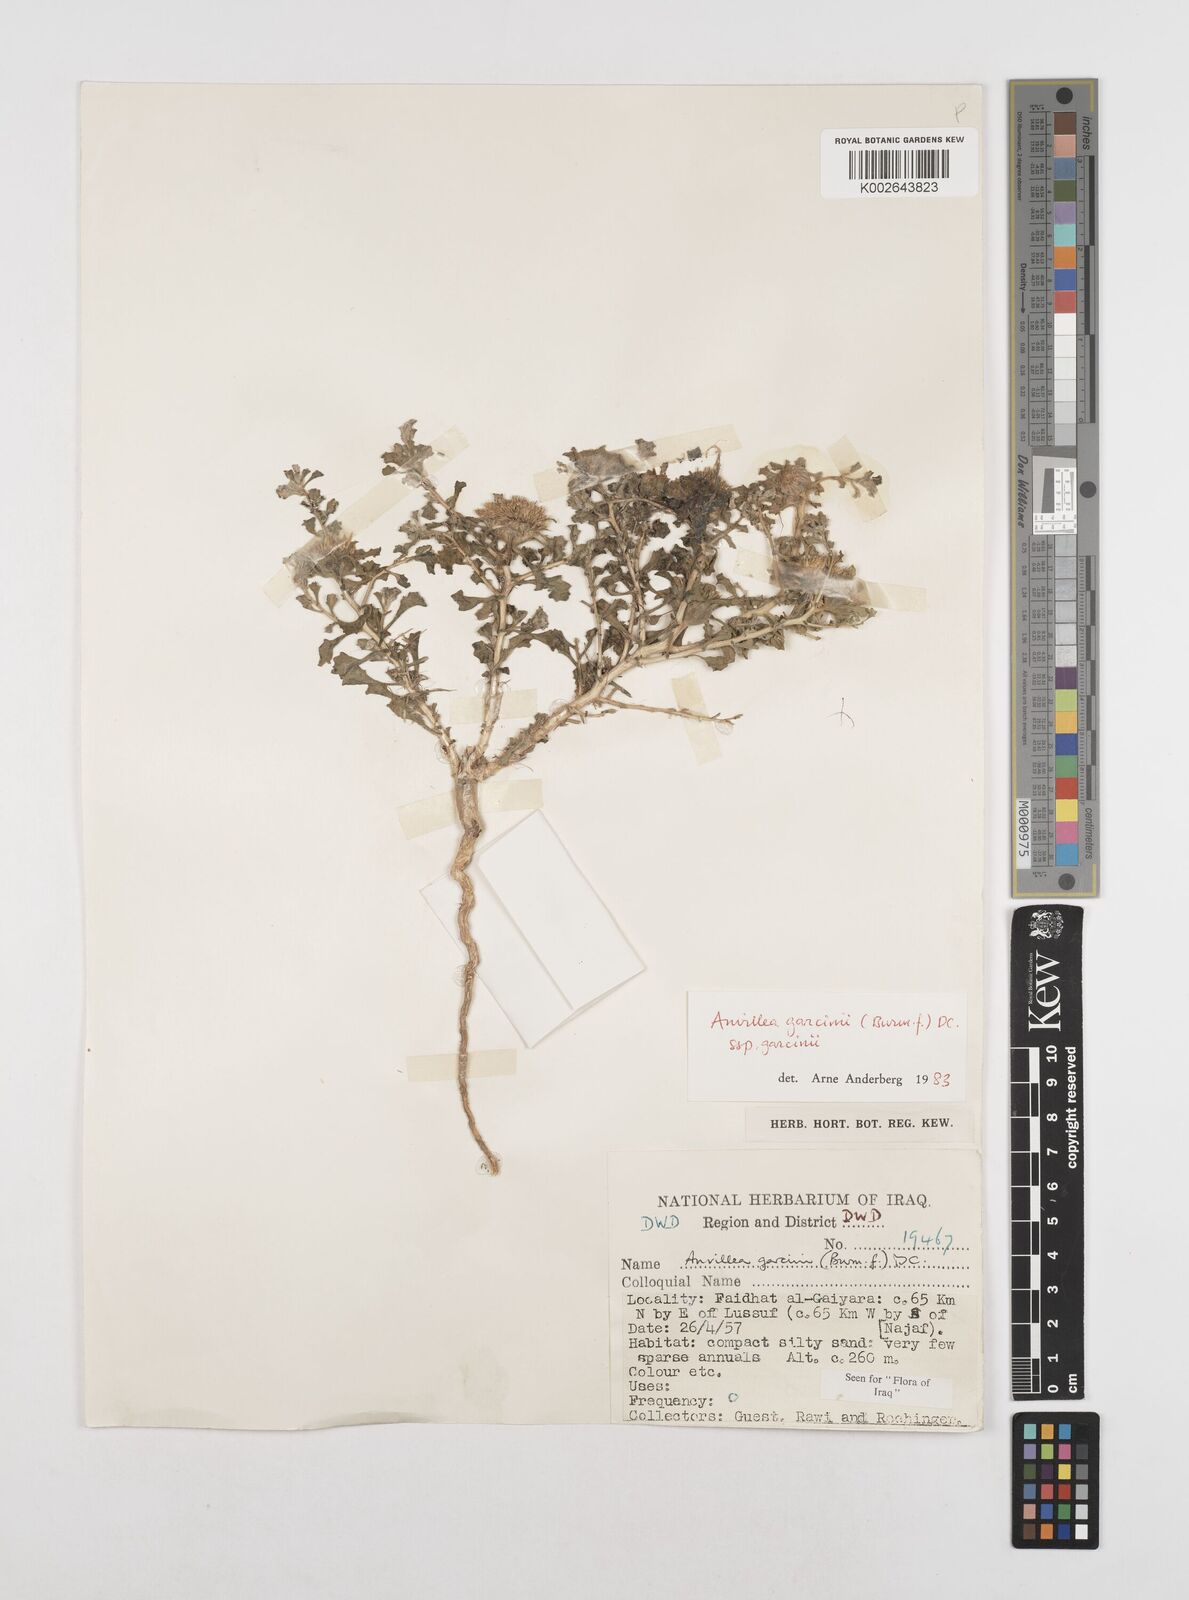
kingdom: Plantae
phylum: Tracheophyta
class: Magnoliopsida
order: Asterales
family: Asteraceae
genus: Anvillea
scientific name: Anvillea
